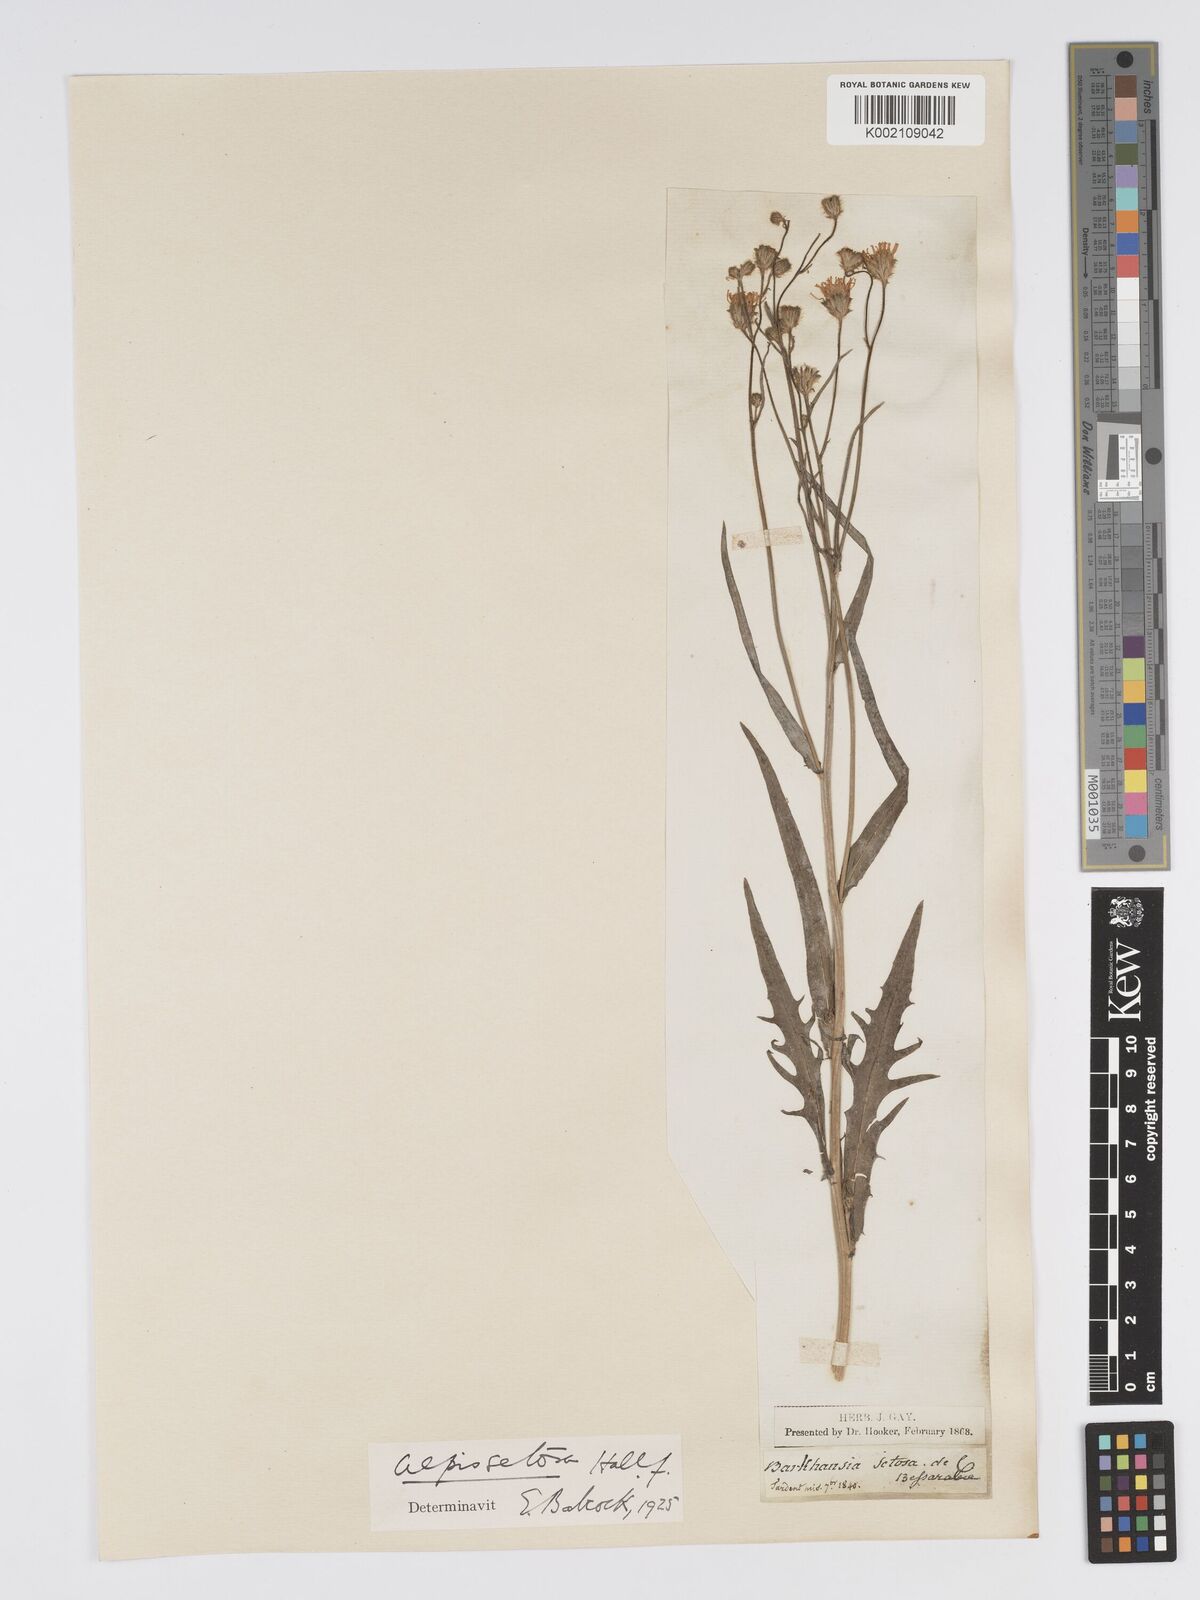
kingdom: Plantae
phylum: Tracheophyta
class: Magnoliopsida
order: Asterales
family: Asteraceae
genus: Crepis
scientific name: Crepis setosa
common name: Bristly hawk's-beard
